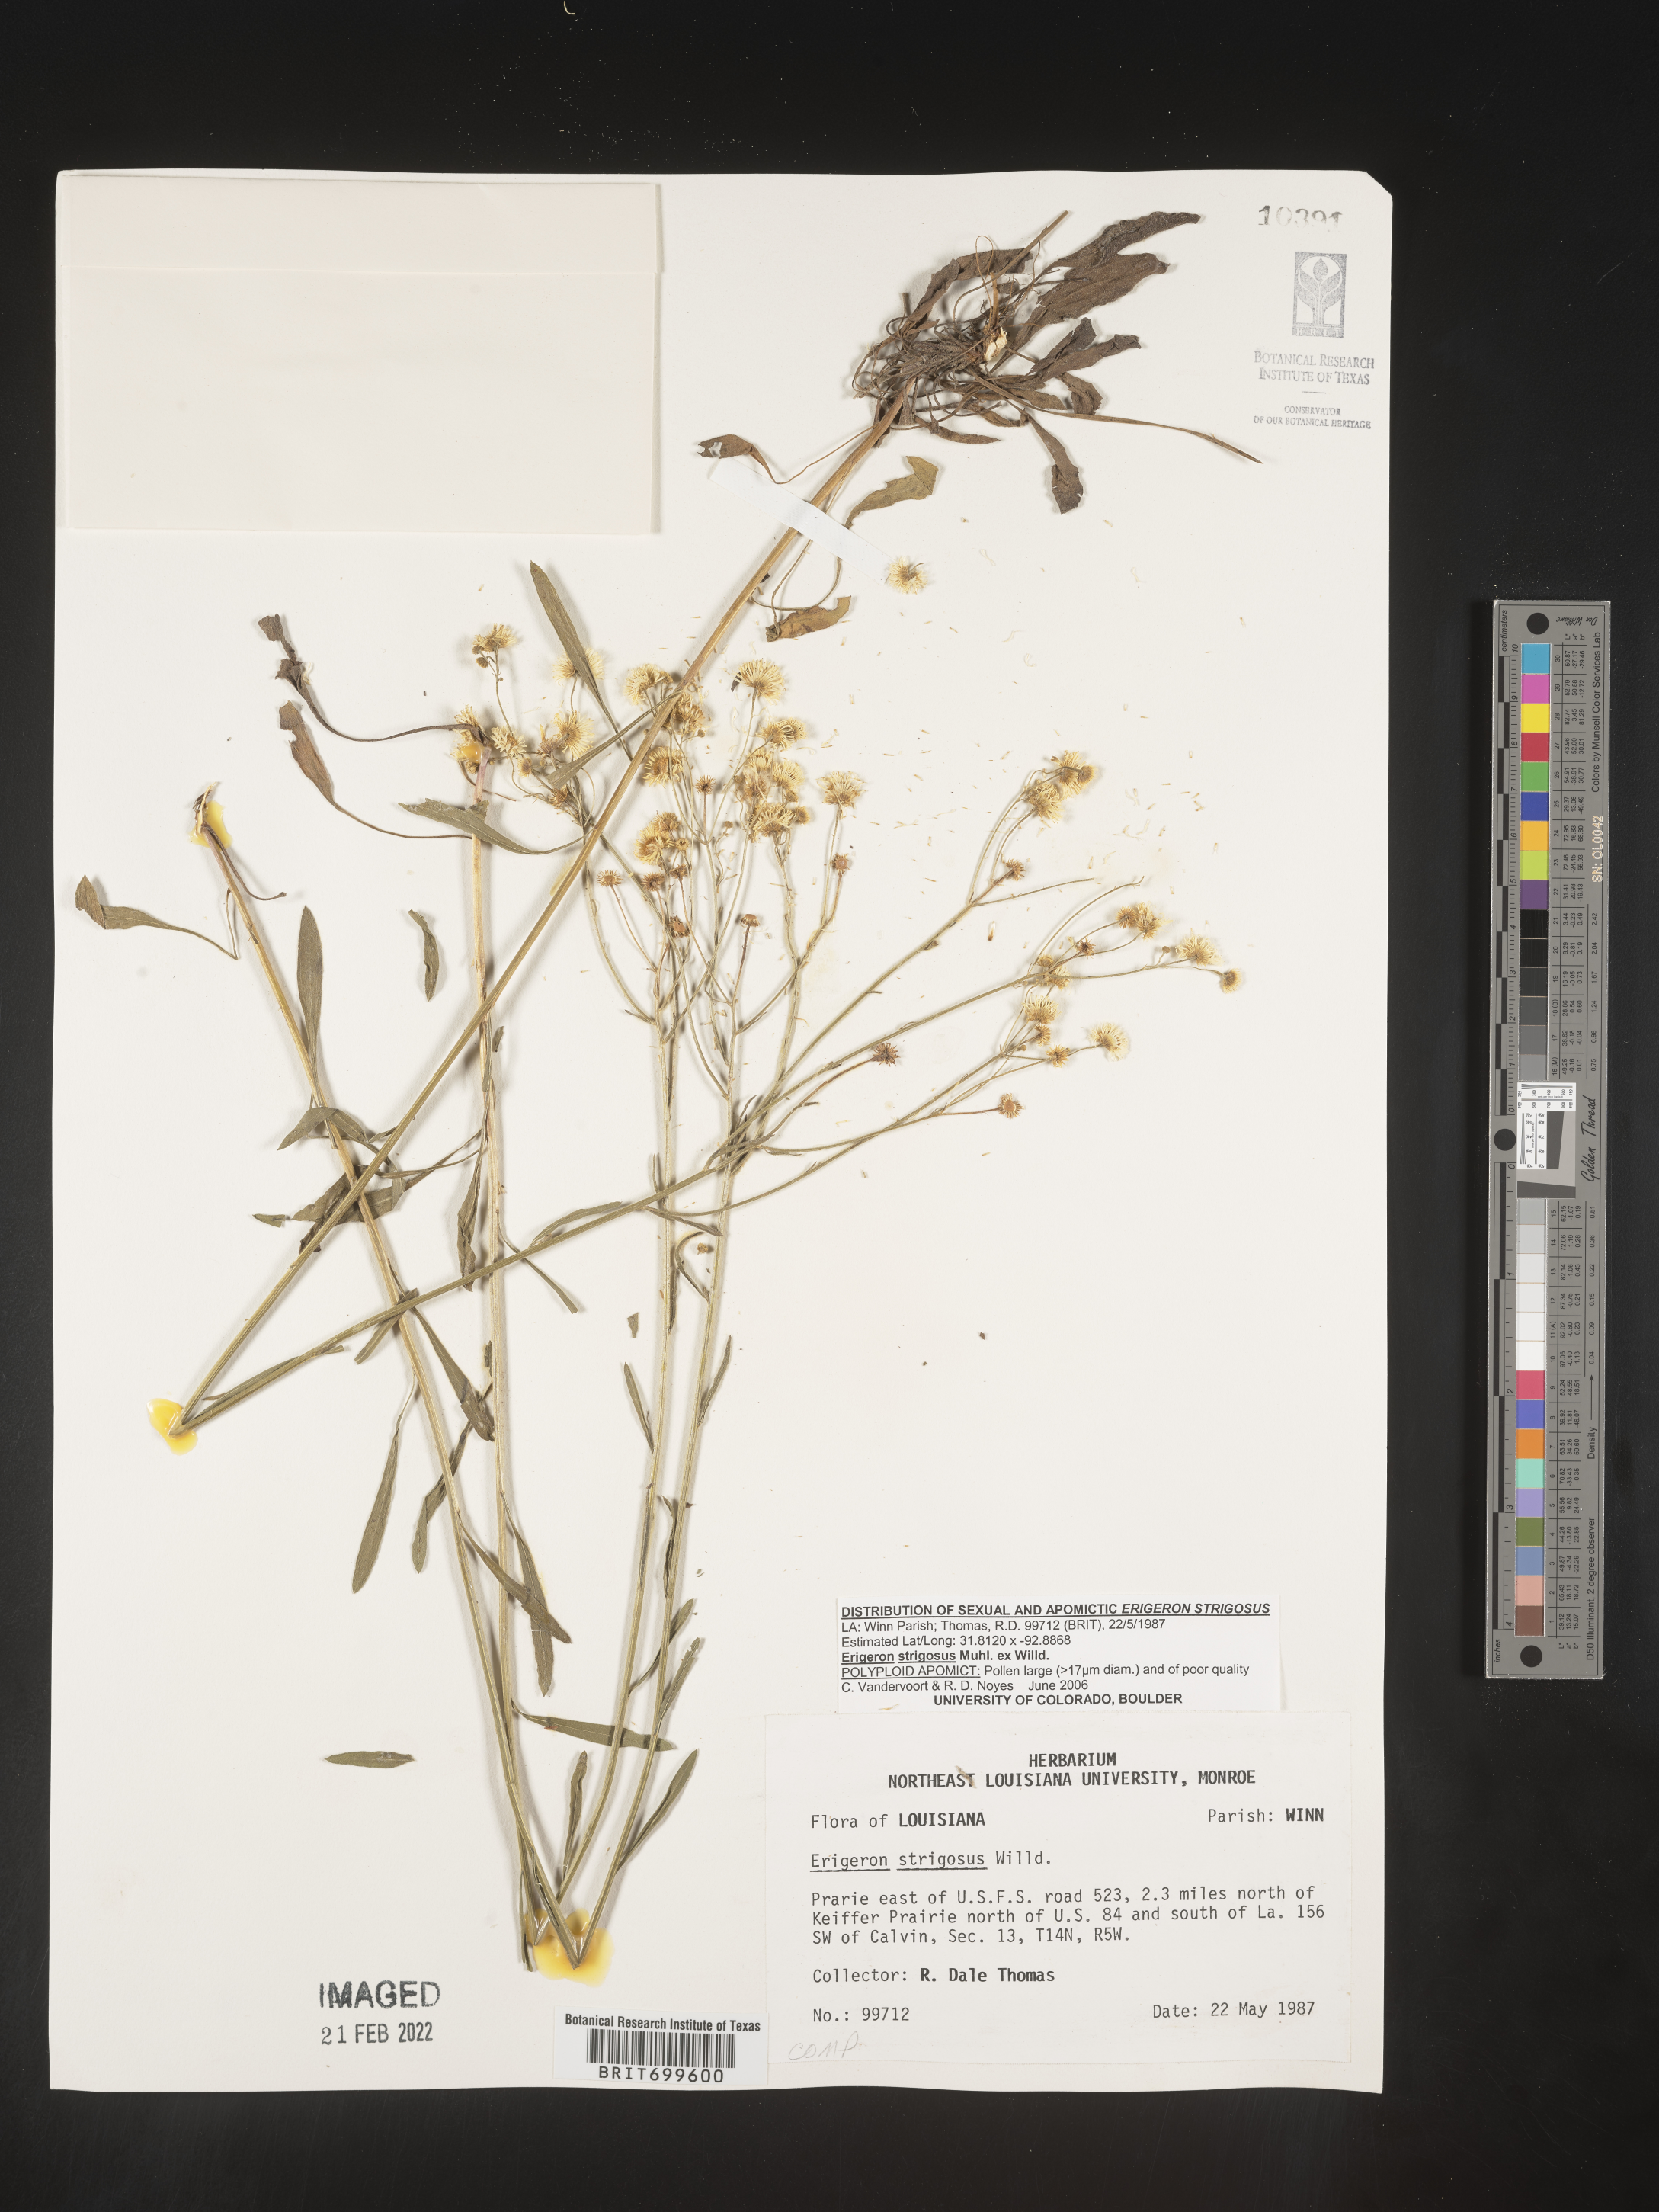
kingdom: Plantae
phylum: Tracheophyta
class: Magnoliopsida
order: Asterales
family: Asteraceae
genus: Erigeron
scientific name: Erigeron strigosus
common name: Common eastern fleabane
